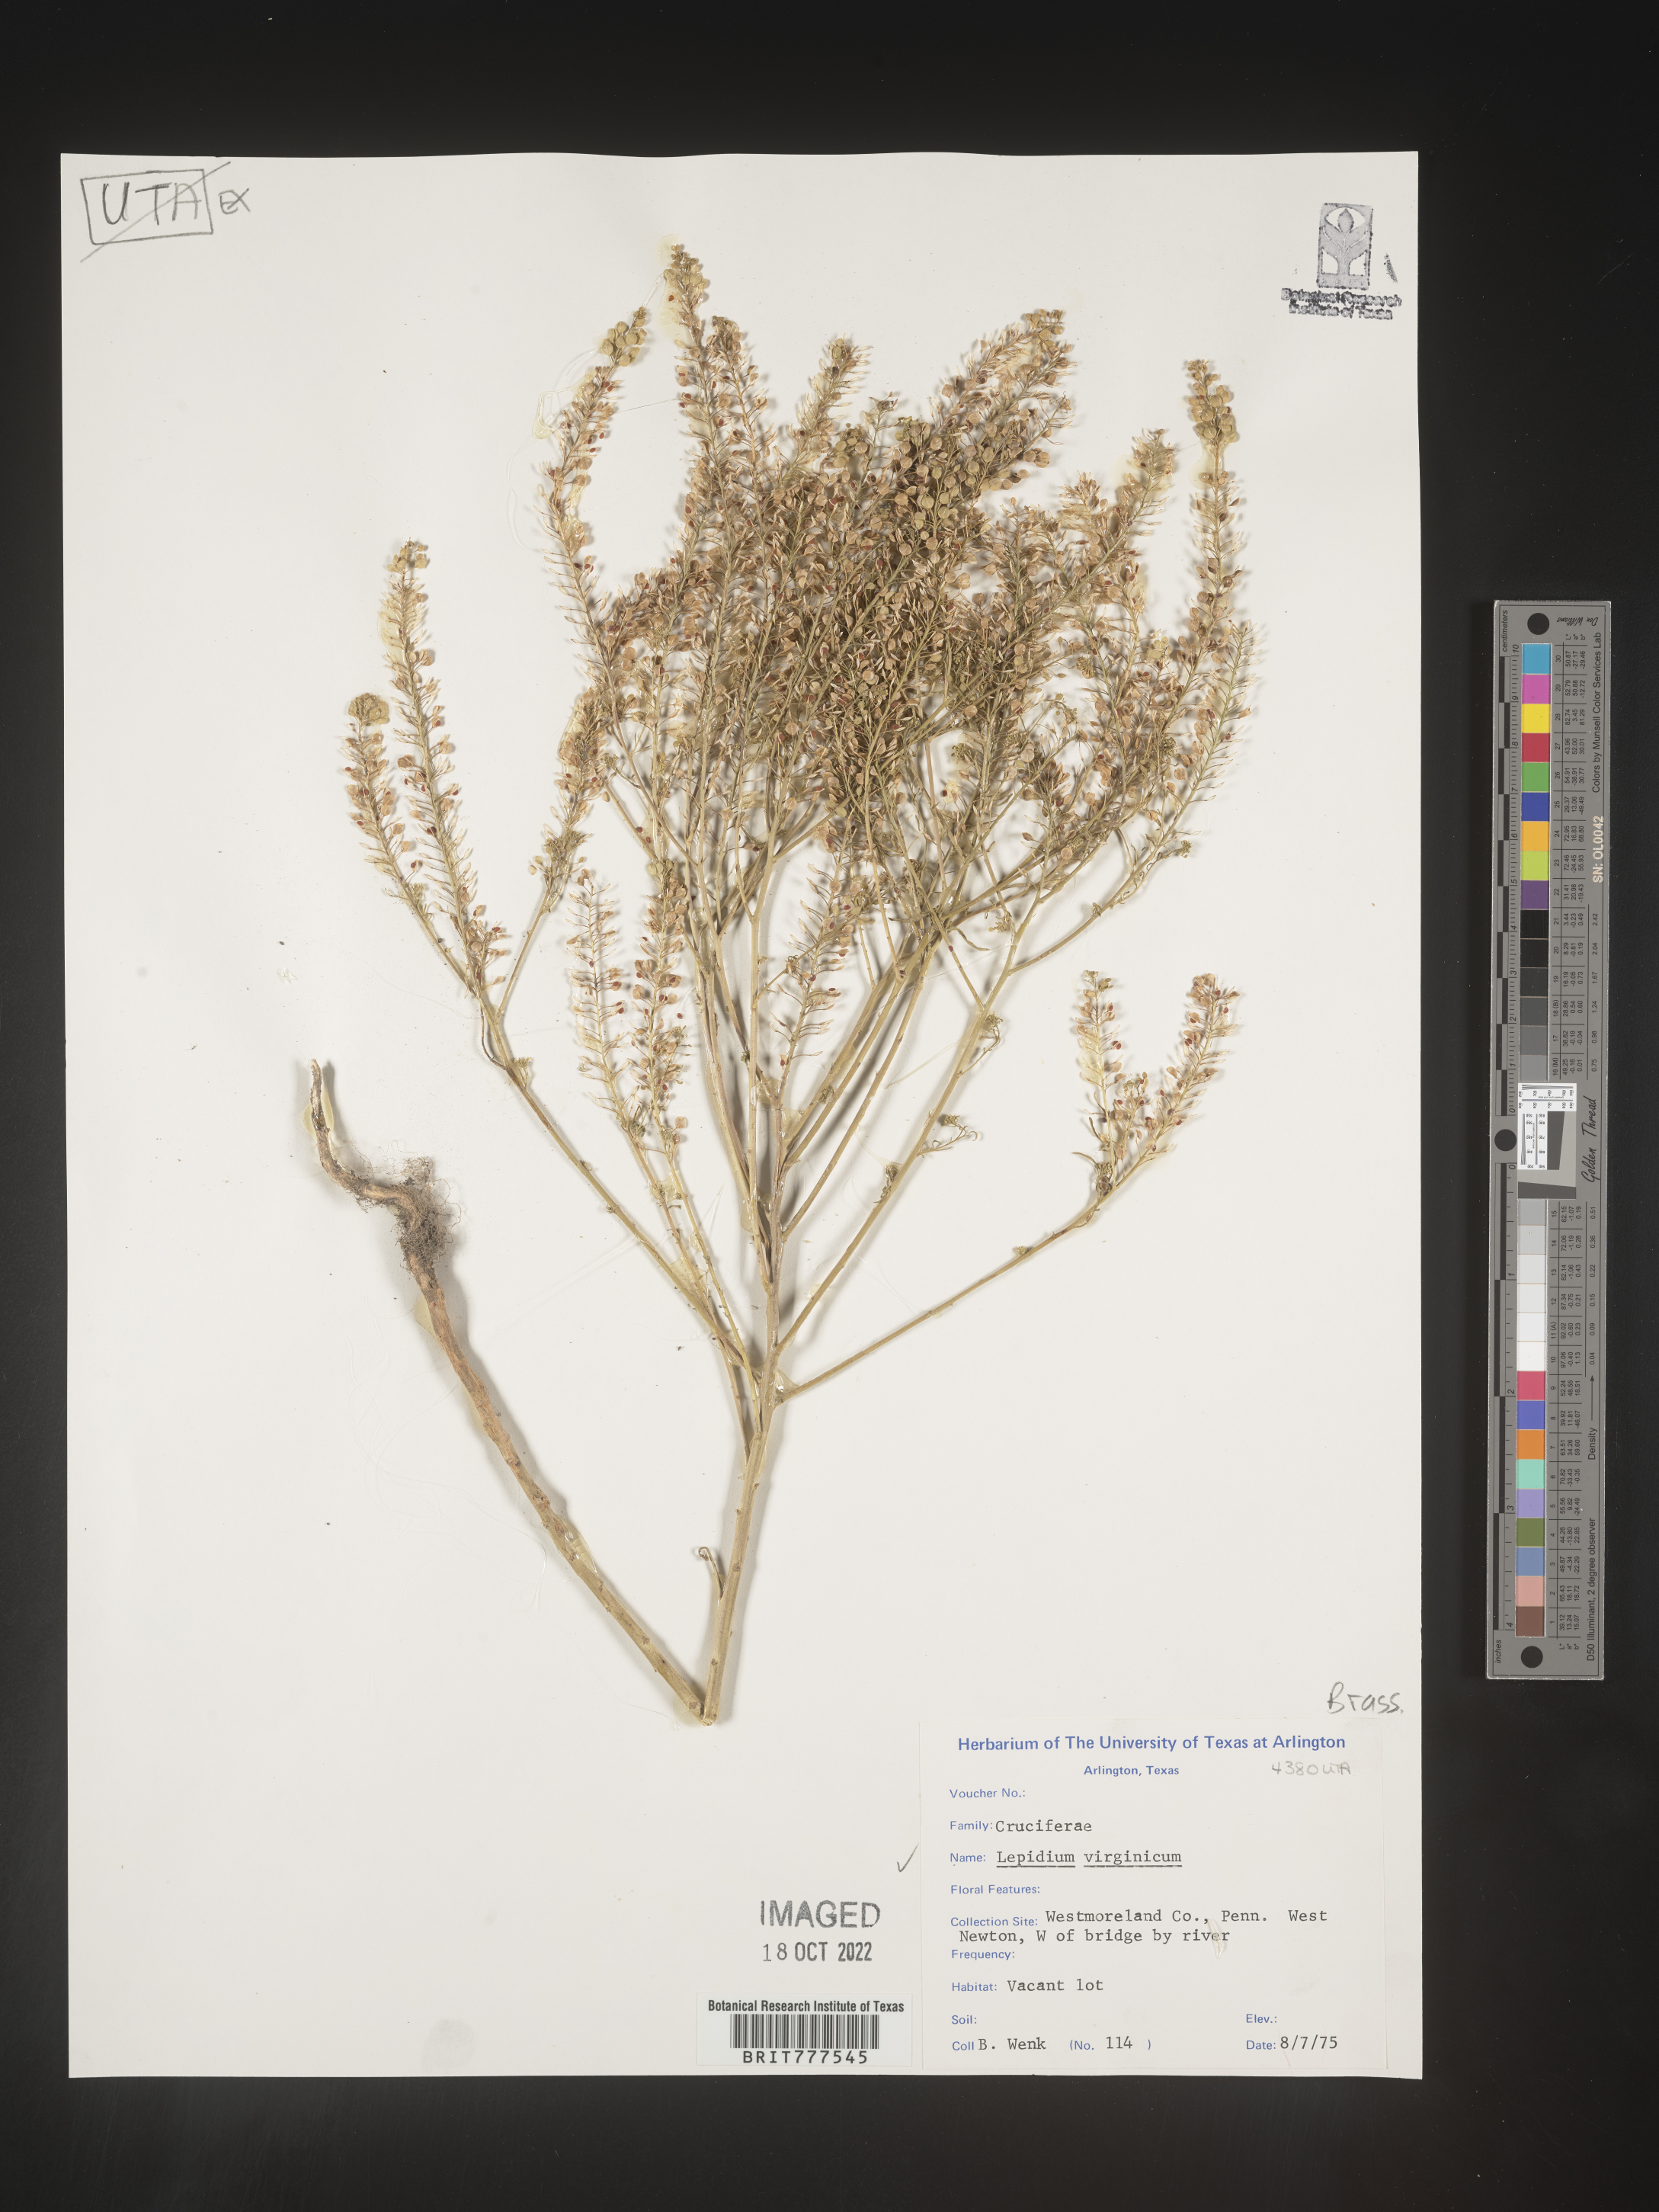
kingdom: Plantae
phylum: Tracheophyta
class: Magnoliopsida
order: Brassicales
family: Brassicaceae
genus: Lepidium
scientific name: Lepidium virginicum
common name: Least pepperwort
